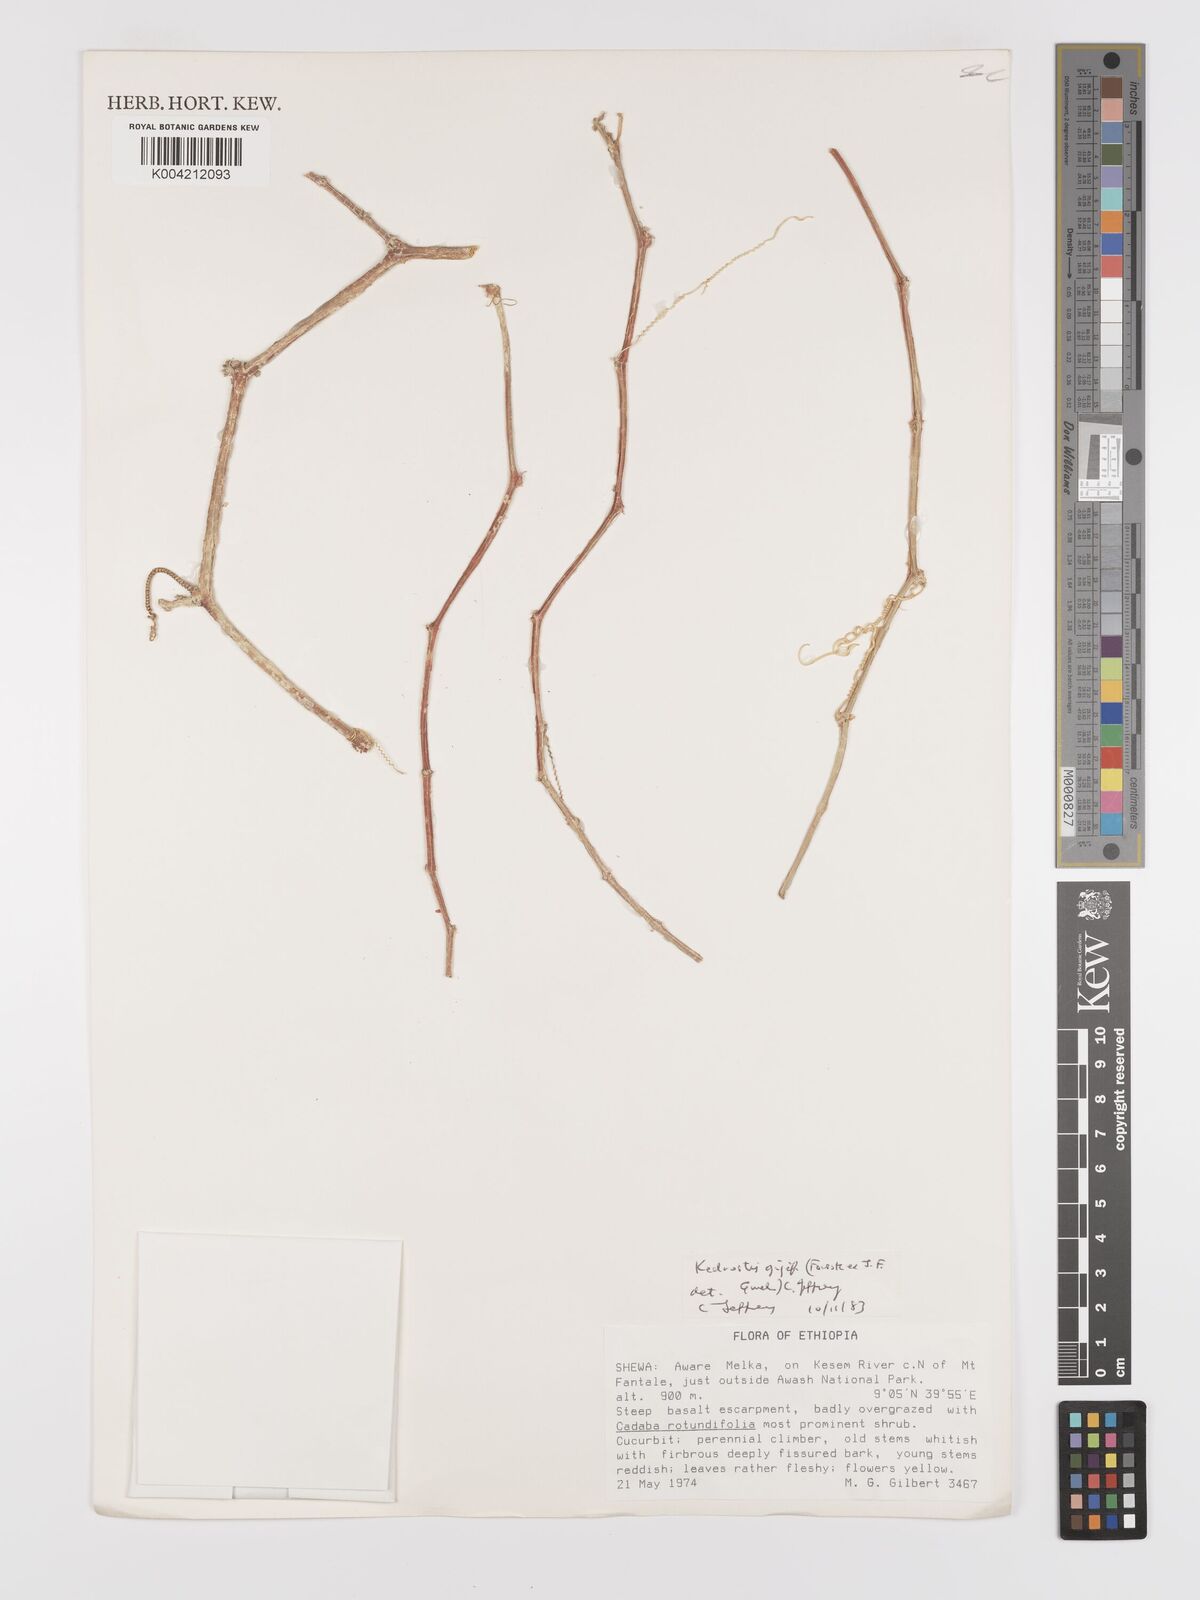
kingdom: Plantae
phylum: Tracheophyta
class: Magnoliopsida
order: Cucurbitales
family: Cucurbitaceae
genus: Kedrostis
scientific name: Kedrostis gijef
